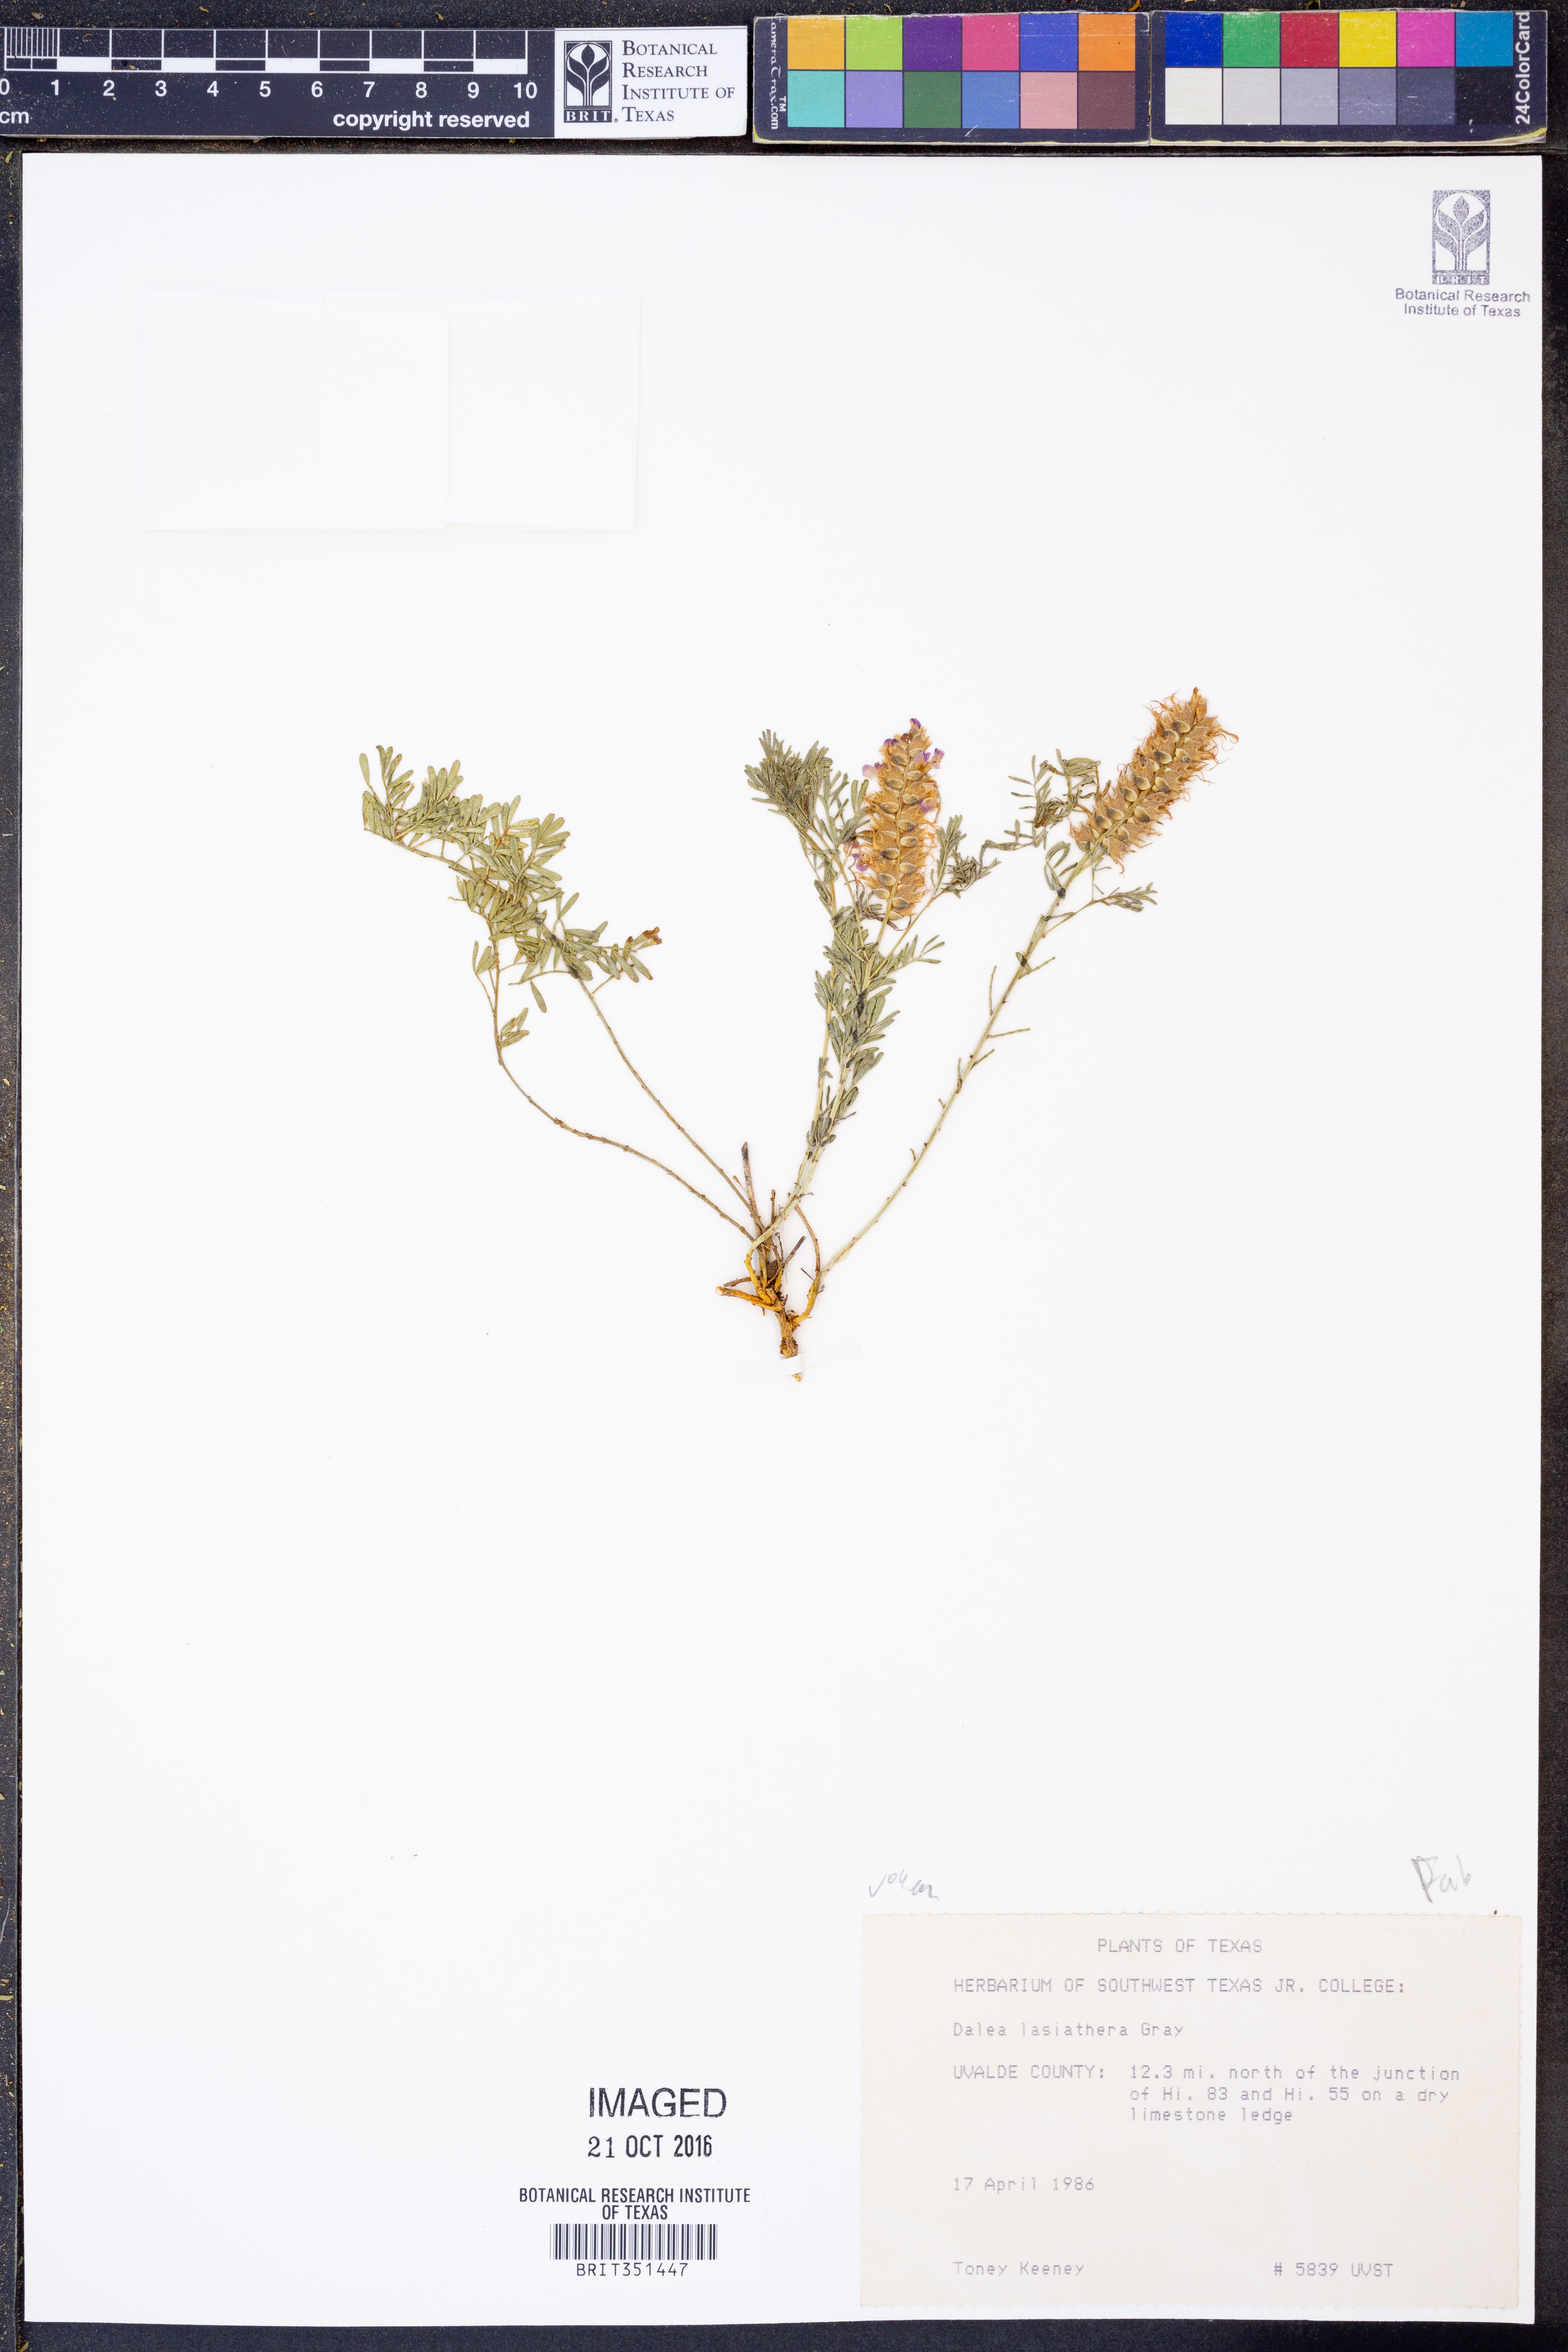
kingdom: Plantae
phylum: Tracheophyta
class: Magnoliopsida
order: Fabales
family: Fabaceae
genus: Dalea
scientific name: Dalea lasiathera
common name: Purple prairie-clover
